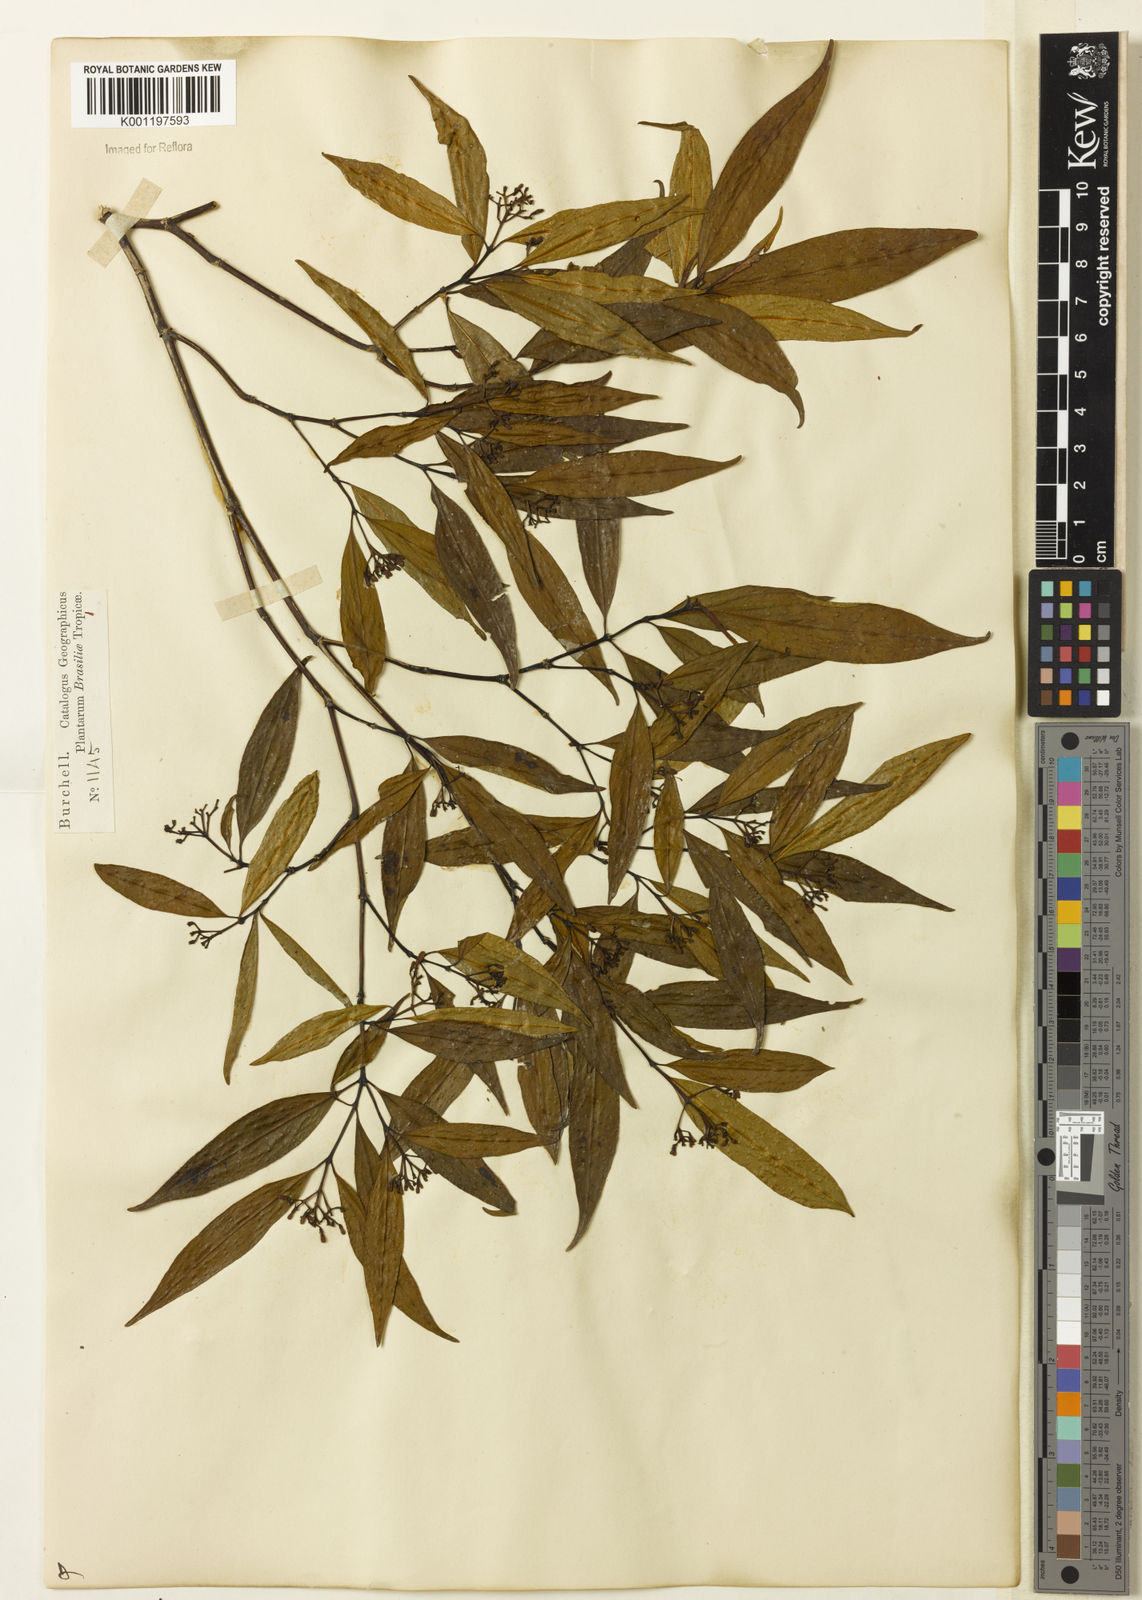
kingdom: Plantae
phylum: Tracheophyta
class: Magnoliopsida
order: Gentianales
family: Rubiaceae
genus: Psychotria
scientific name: Psychotria leiocarpa
